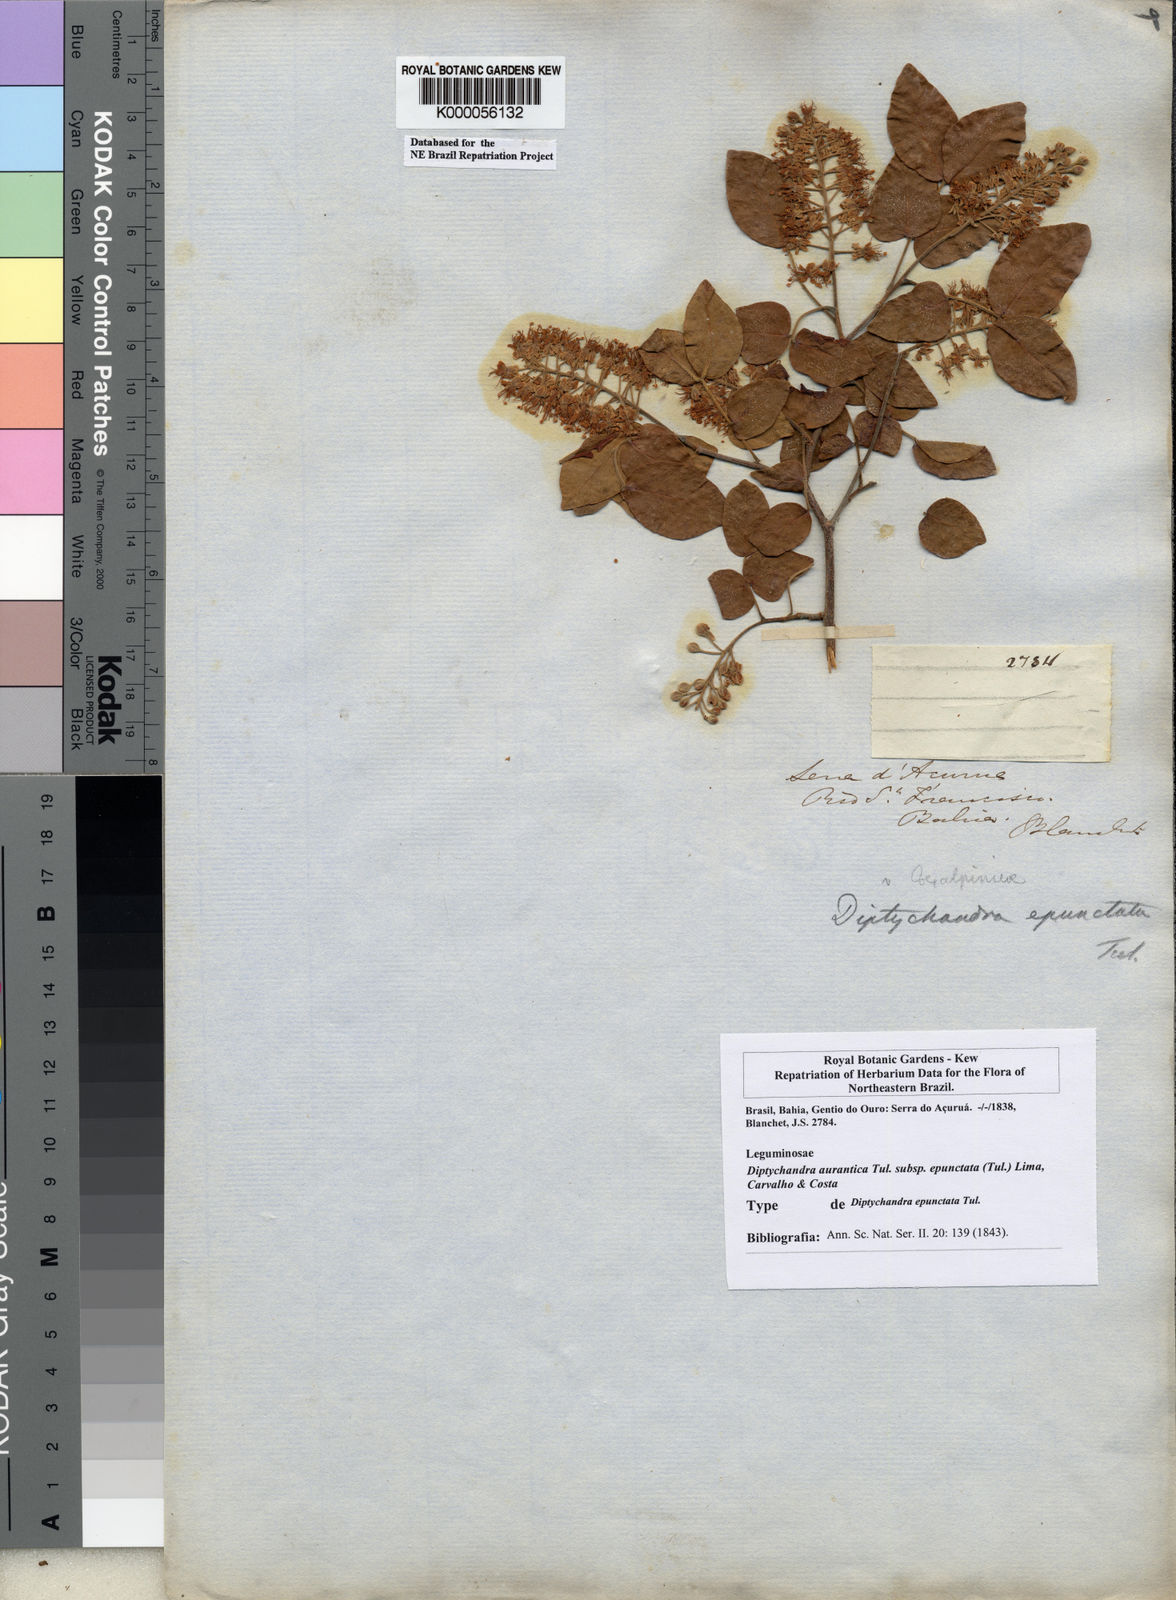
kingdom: Plantae
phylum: Tracheophyta
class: Magnoliopsida
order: Fabales
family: Fabaceae
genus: Diptychandra
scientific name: Diptychandra
